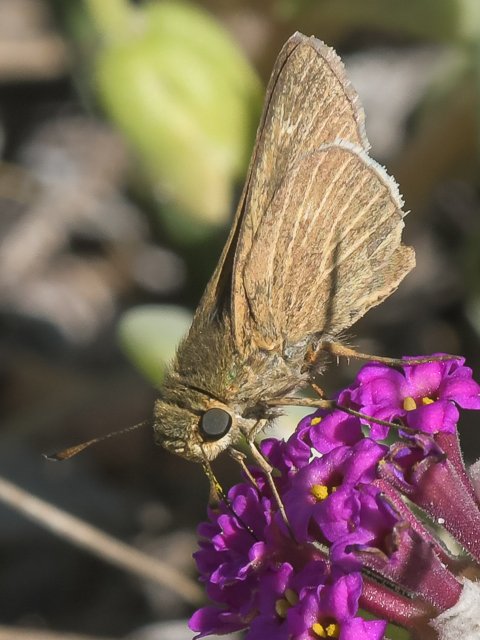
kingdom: Animalia
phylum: Arthropoda
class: Insecta
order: Lepidoptera
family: Hesperiidae
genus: Panoquina
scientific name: Panoquina errans
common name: Wandering Skipper
